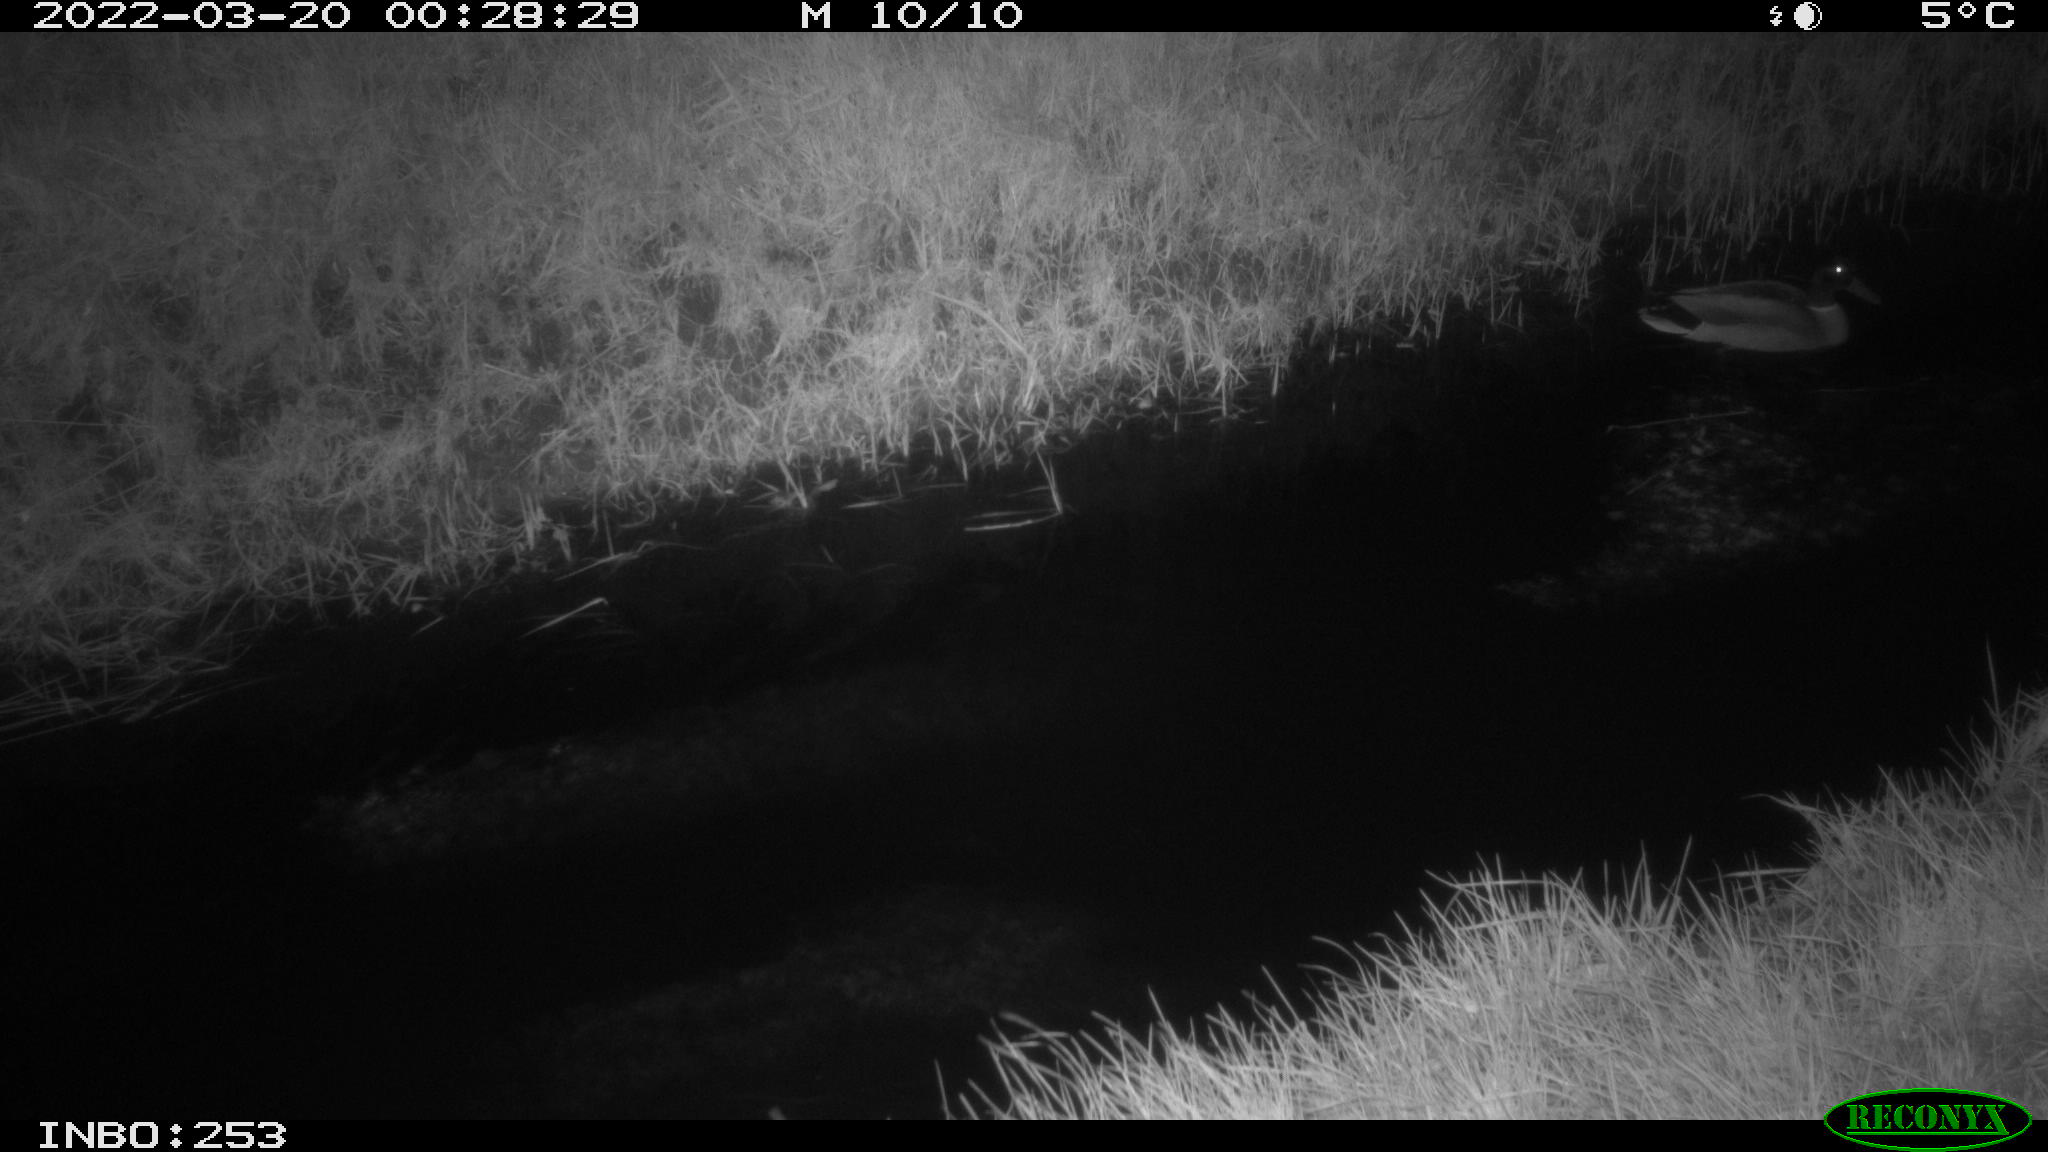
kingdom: Animalia
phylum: Chordata
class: Aves
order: Anseriformes
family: Anatidae
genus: Anas
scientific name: Anas platyrhynchos
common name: Mallard
